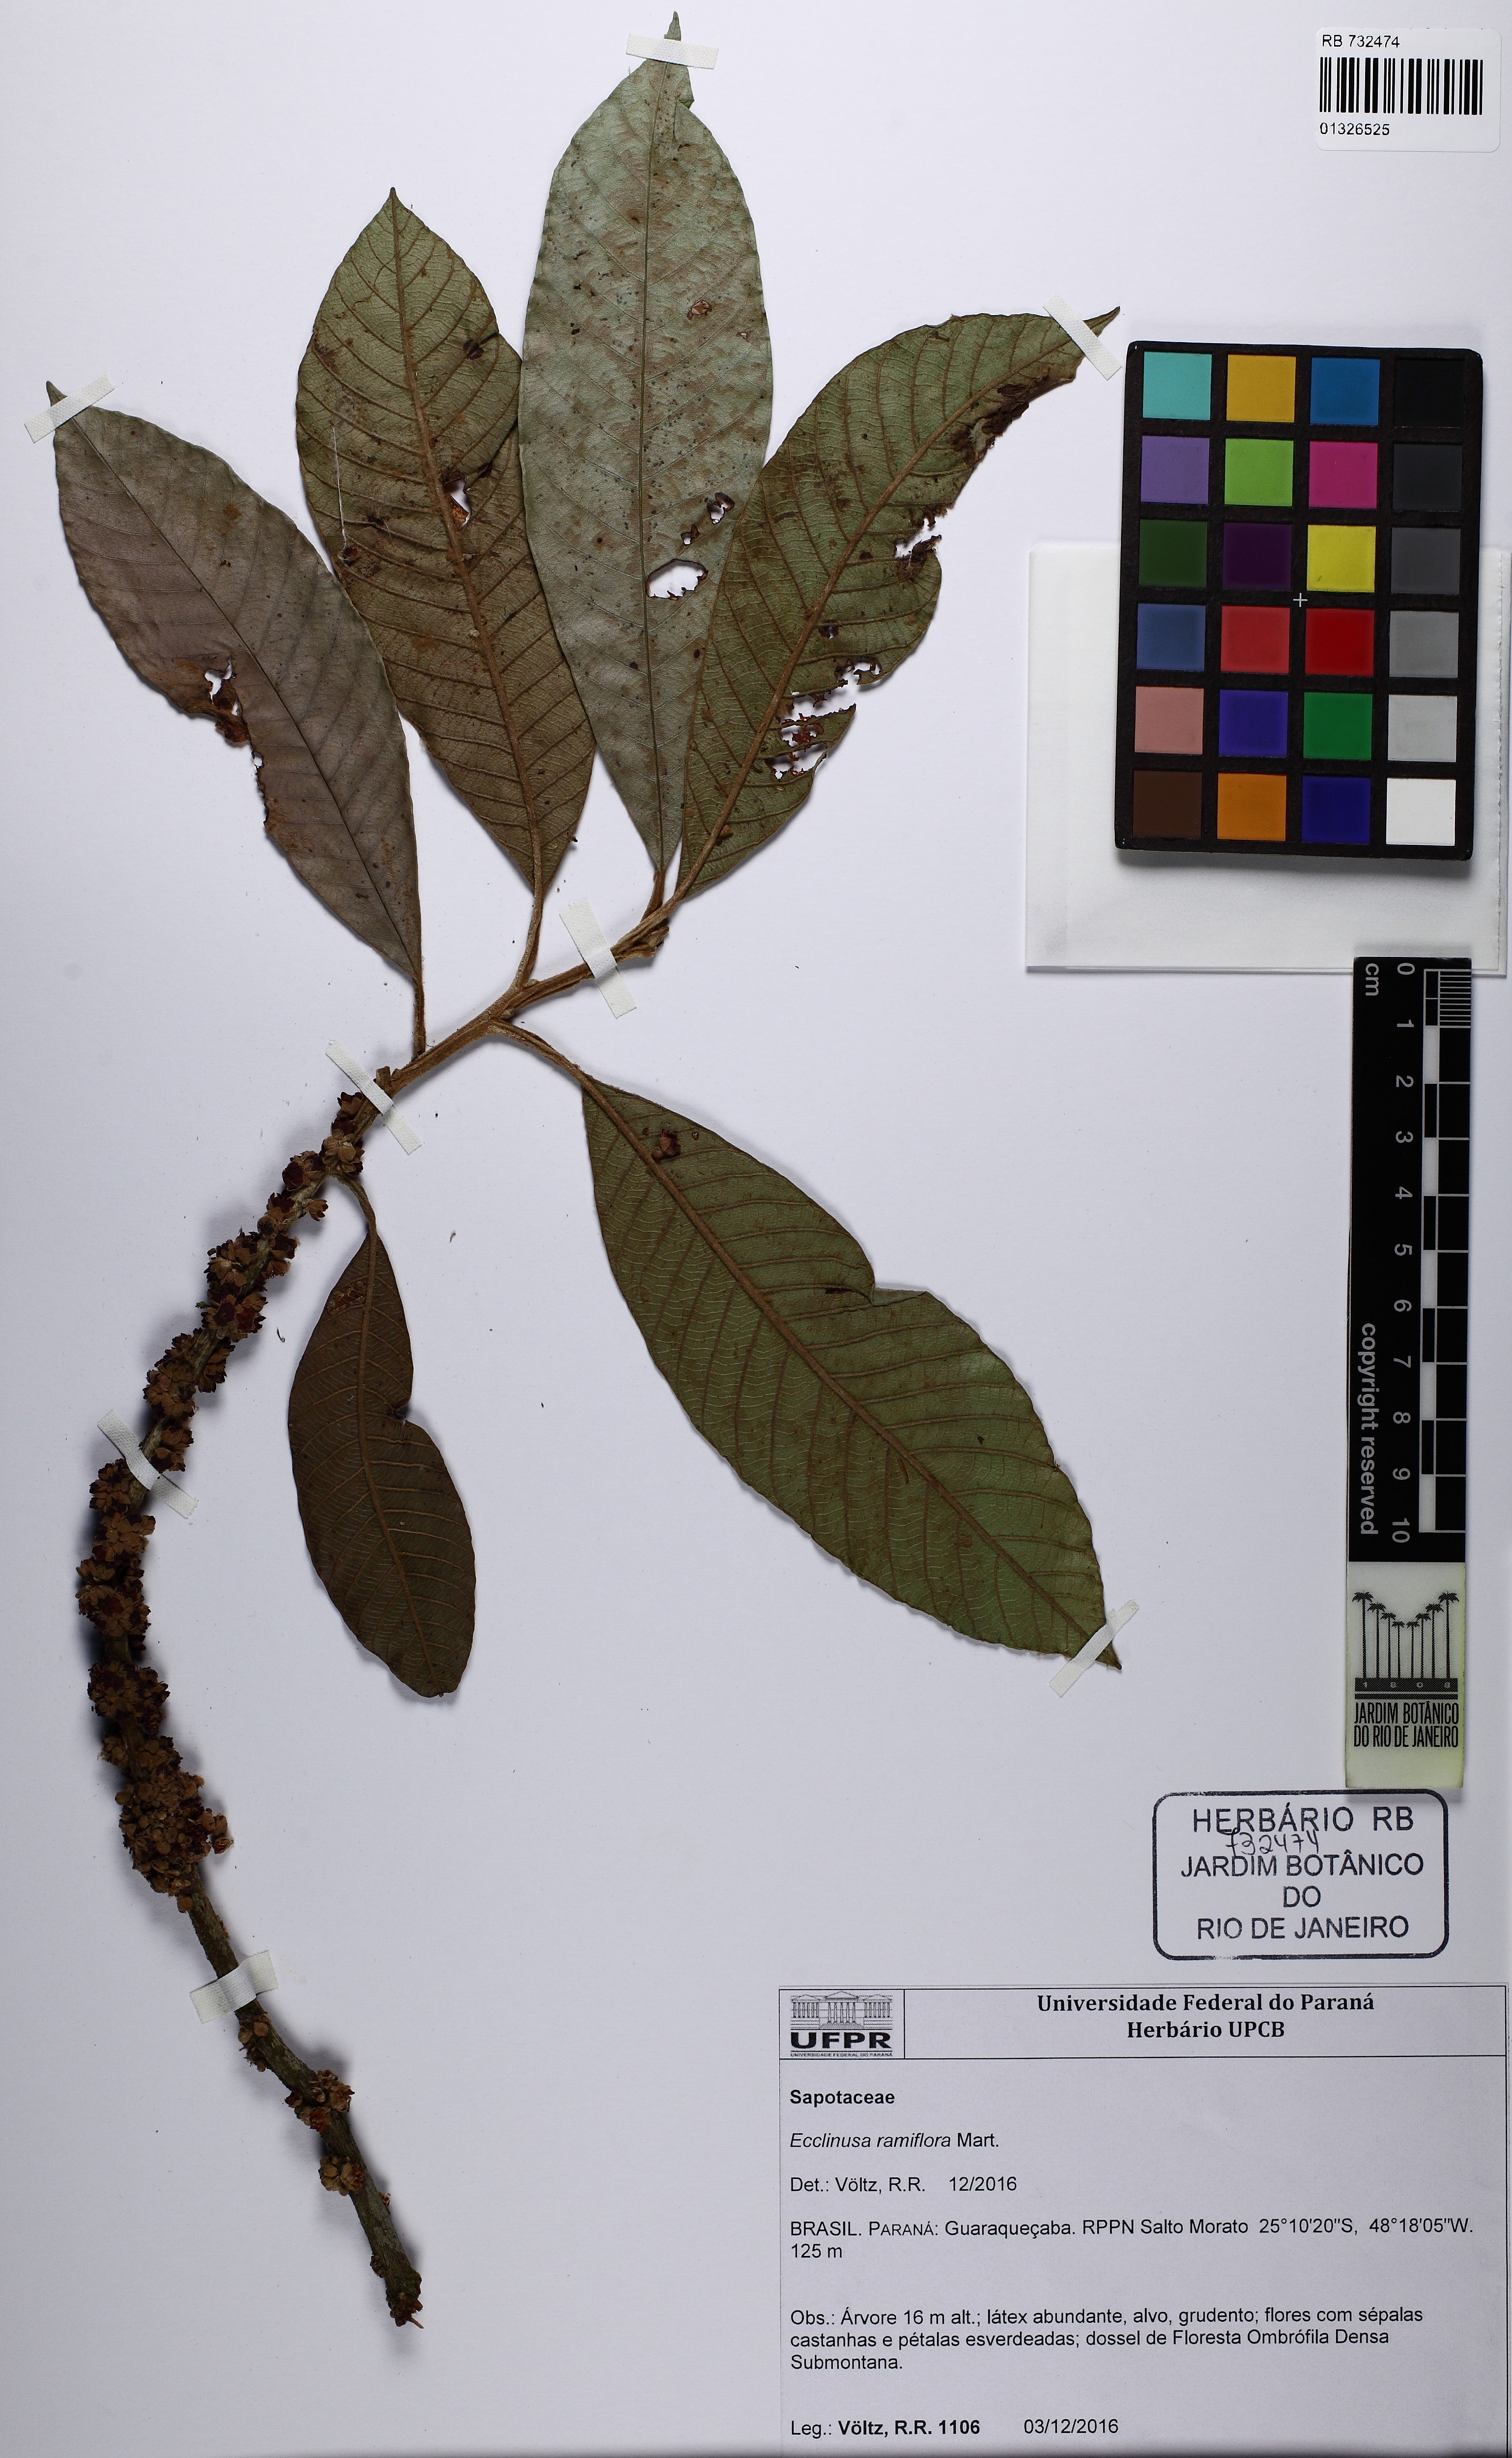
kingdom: Plantae
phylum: Tracheophyta
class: Magnoliopsida
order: Ericales
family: Sapotaceae
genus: Ecclinusa
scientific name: Ecclinusa ramiflora
